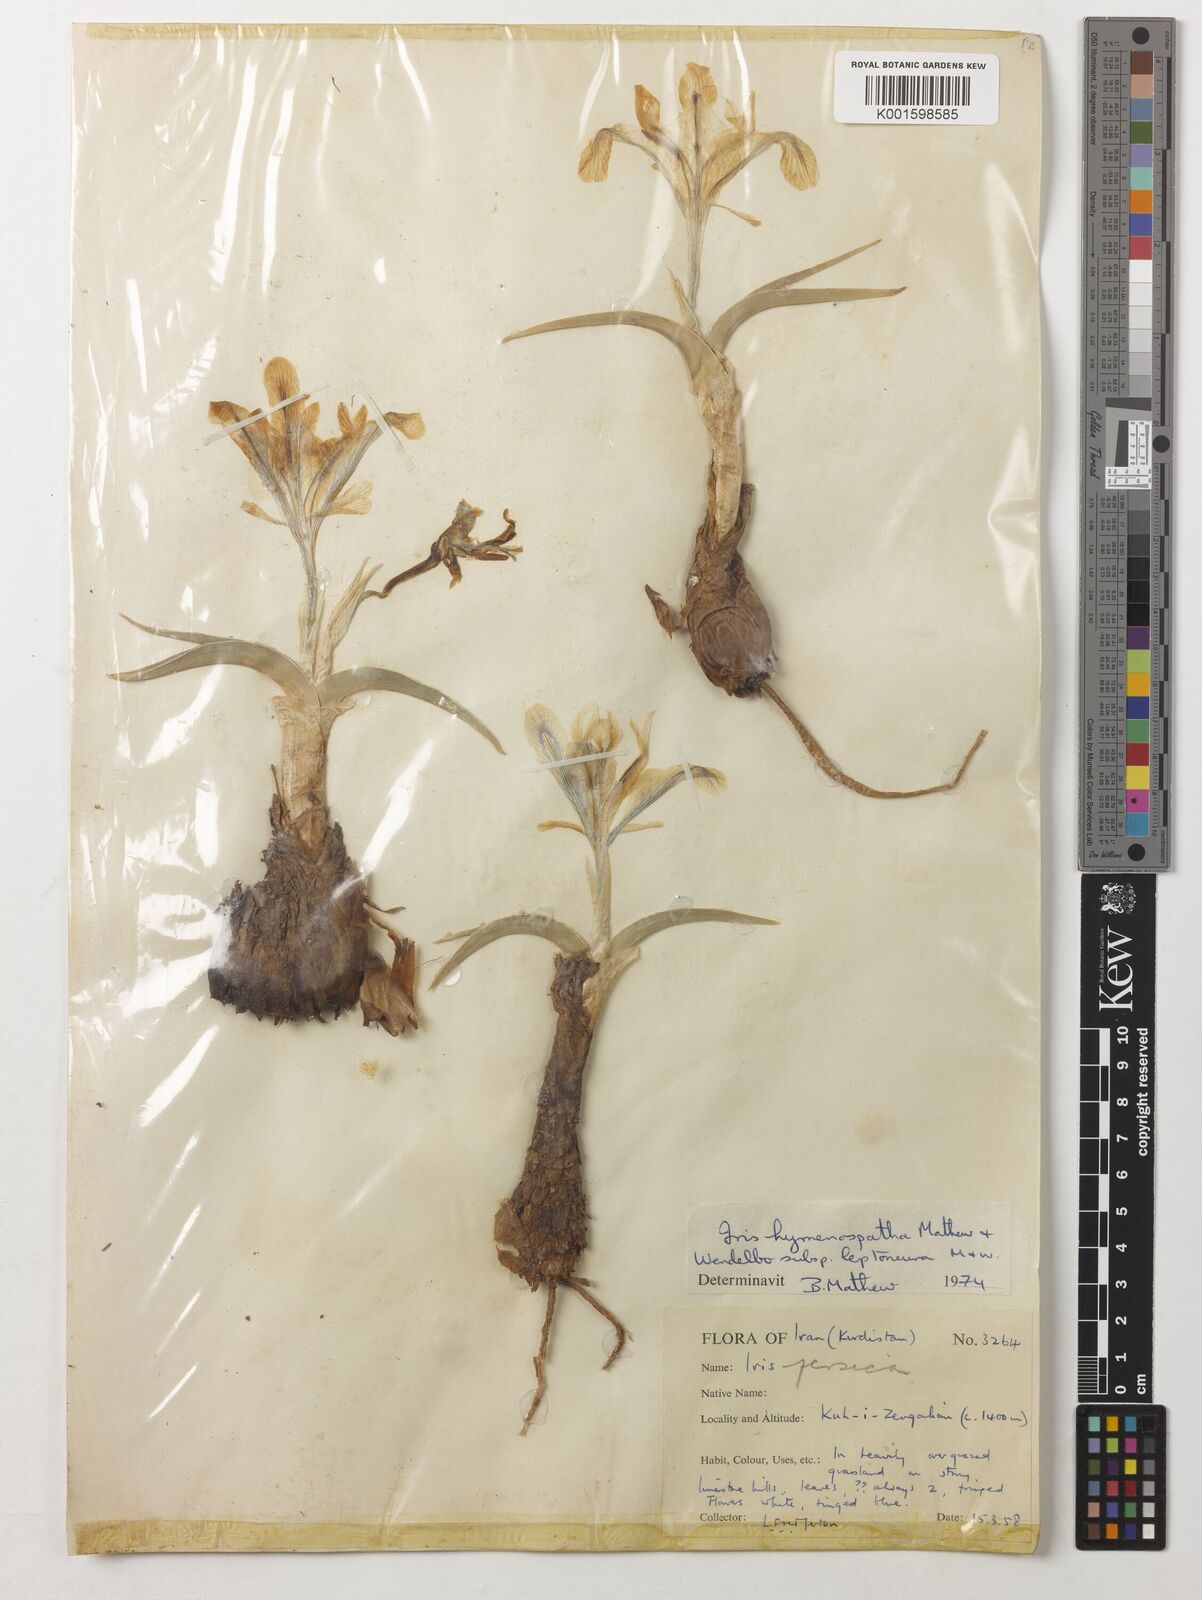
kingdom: Plantae
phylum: Tracheophyta
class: Liliopsida
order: Asparagales
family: Iridaceae
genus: Iris
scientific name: Iris hymenospatha
